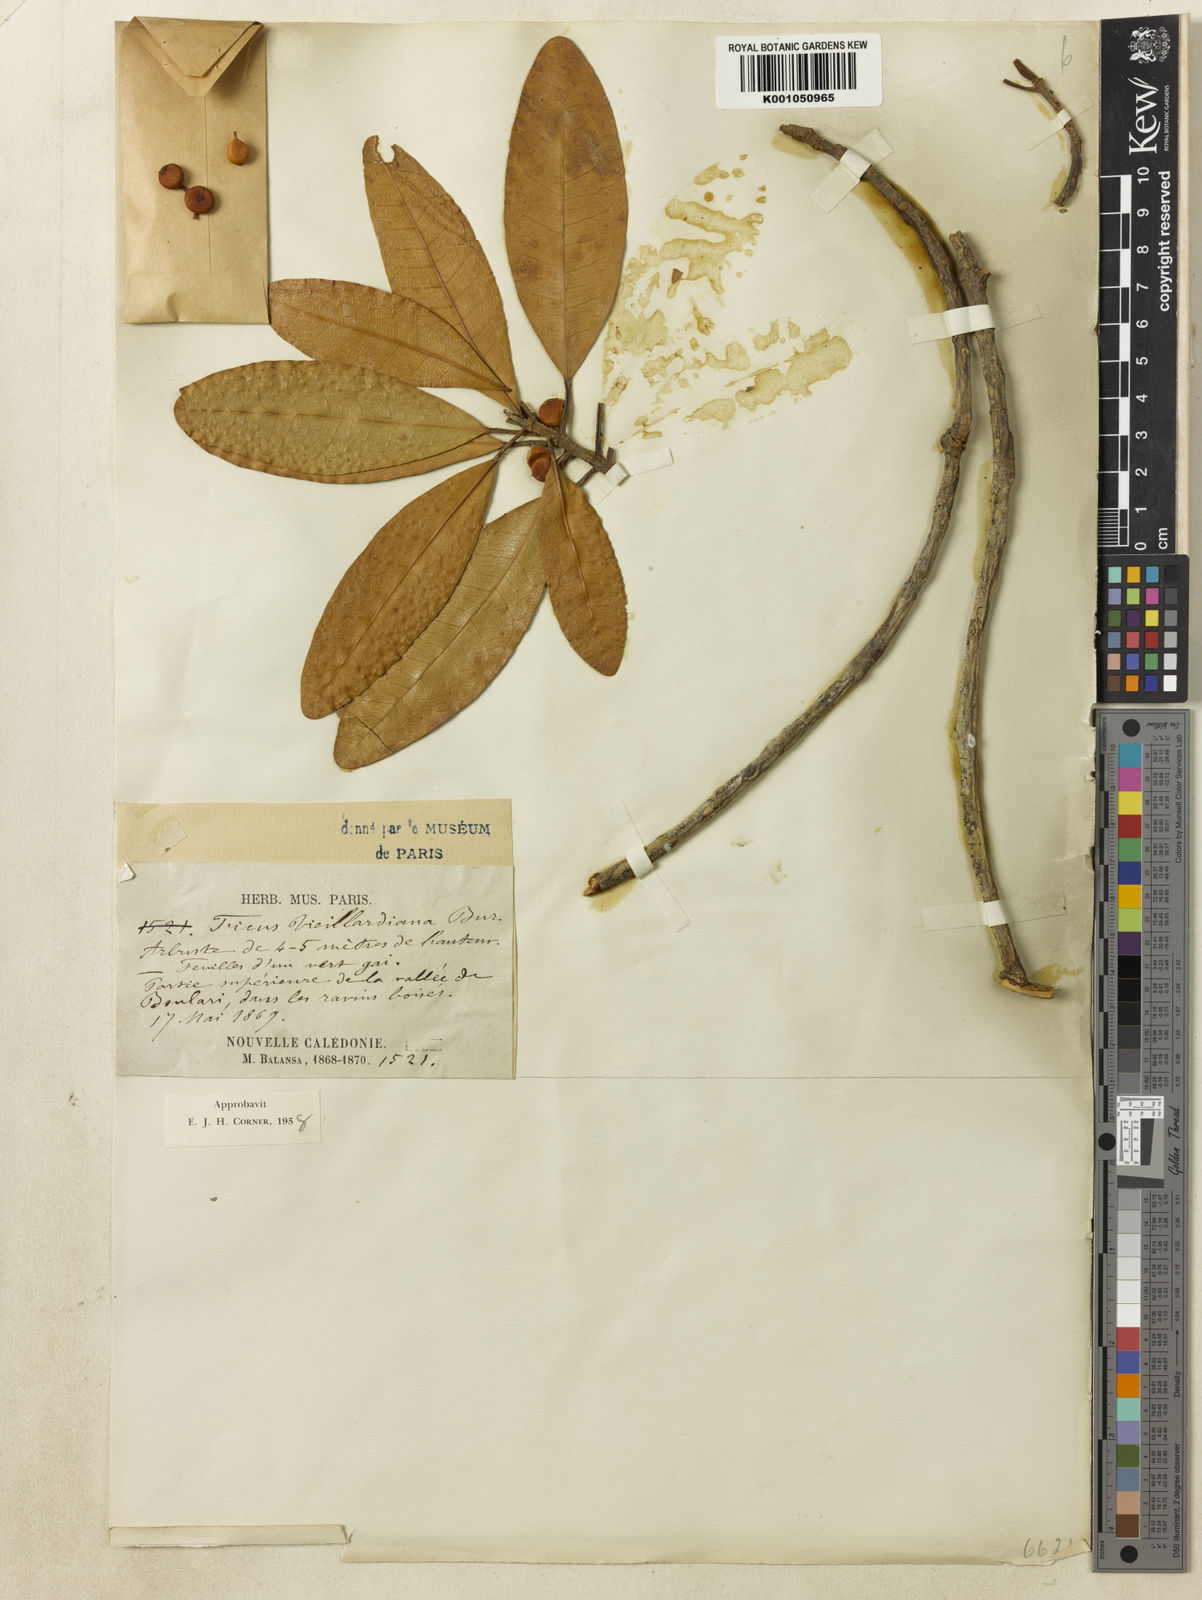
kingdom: Plantae
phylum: Tracheophyta
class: Magnoliopsida
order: Rosales
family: Moraceae
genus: Ficus
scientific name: Ficus vieillardiana
